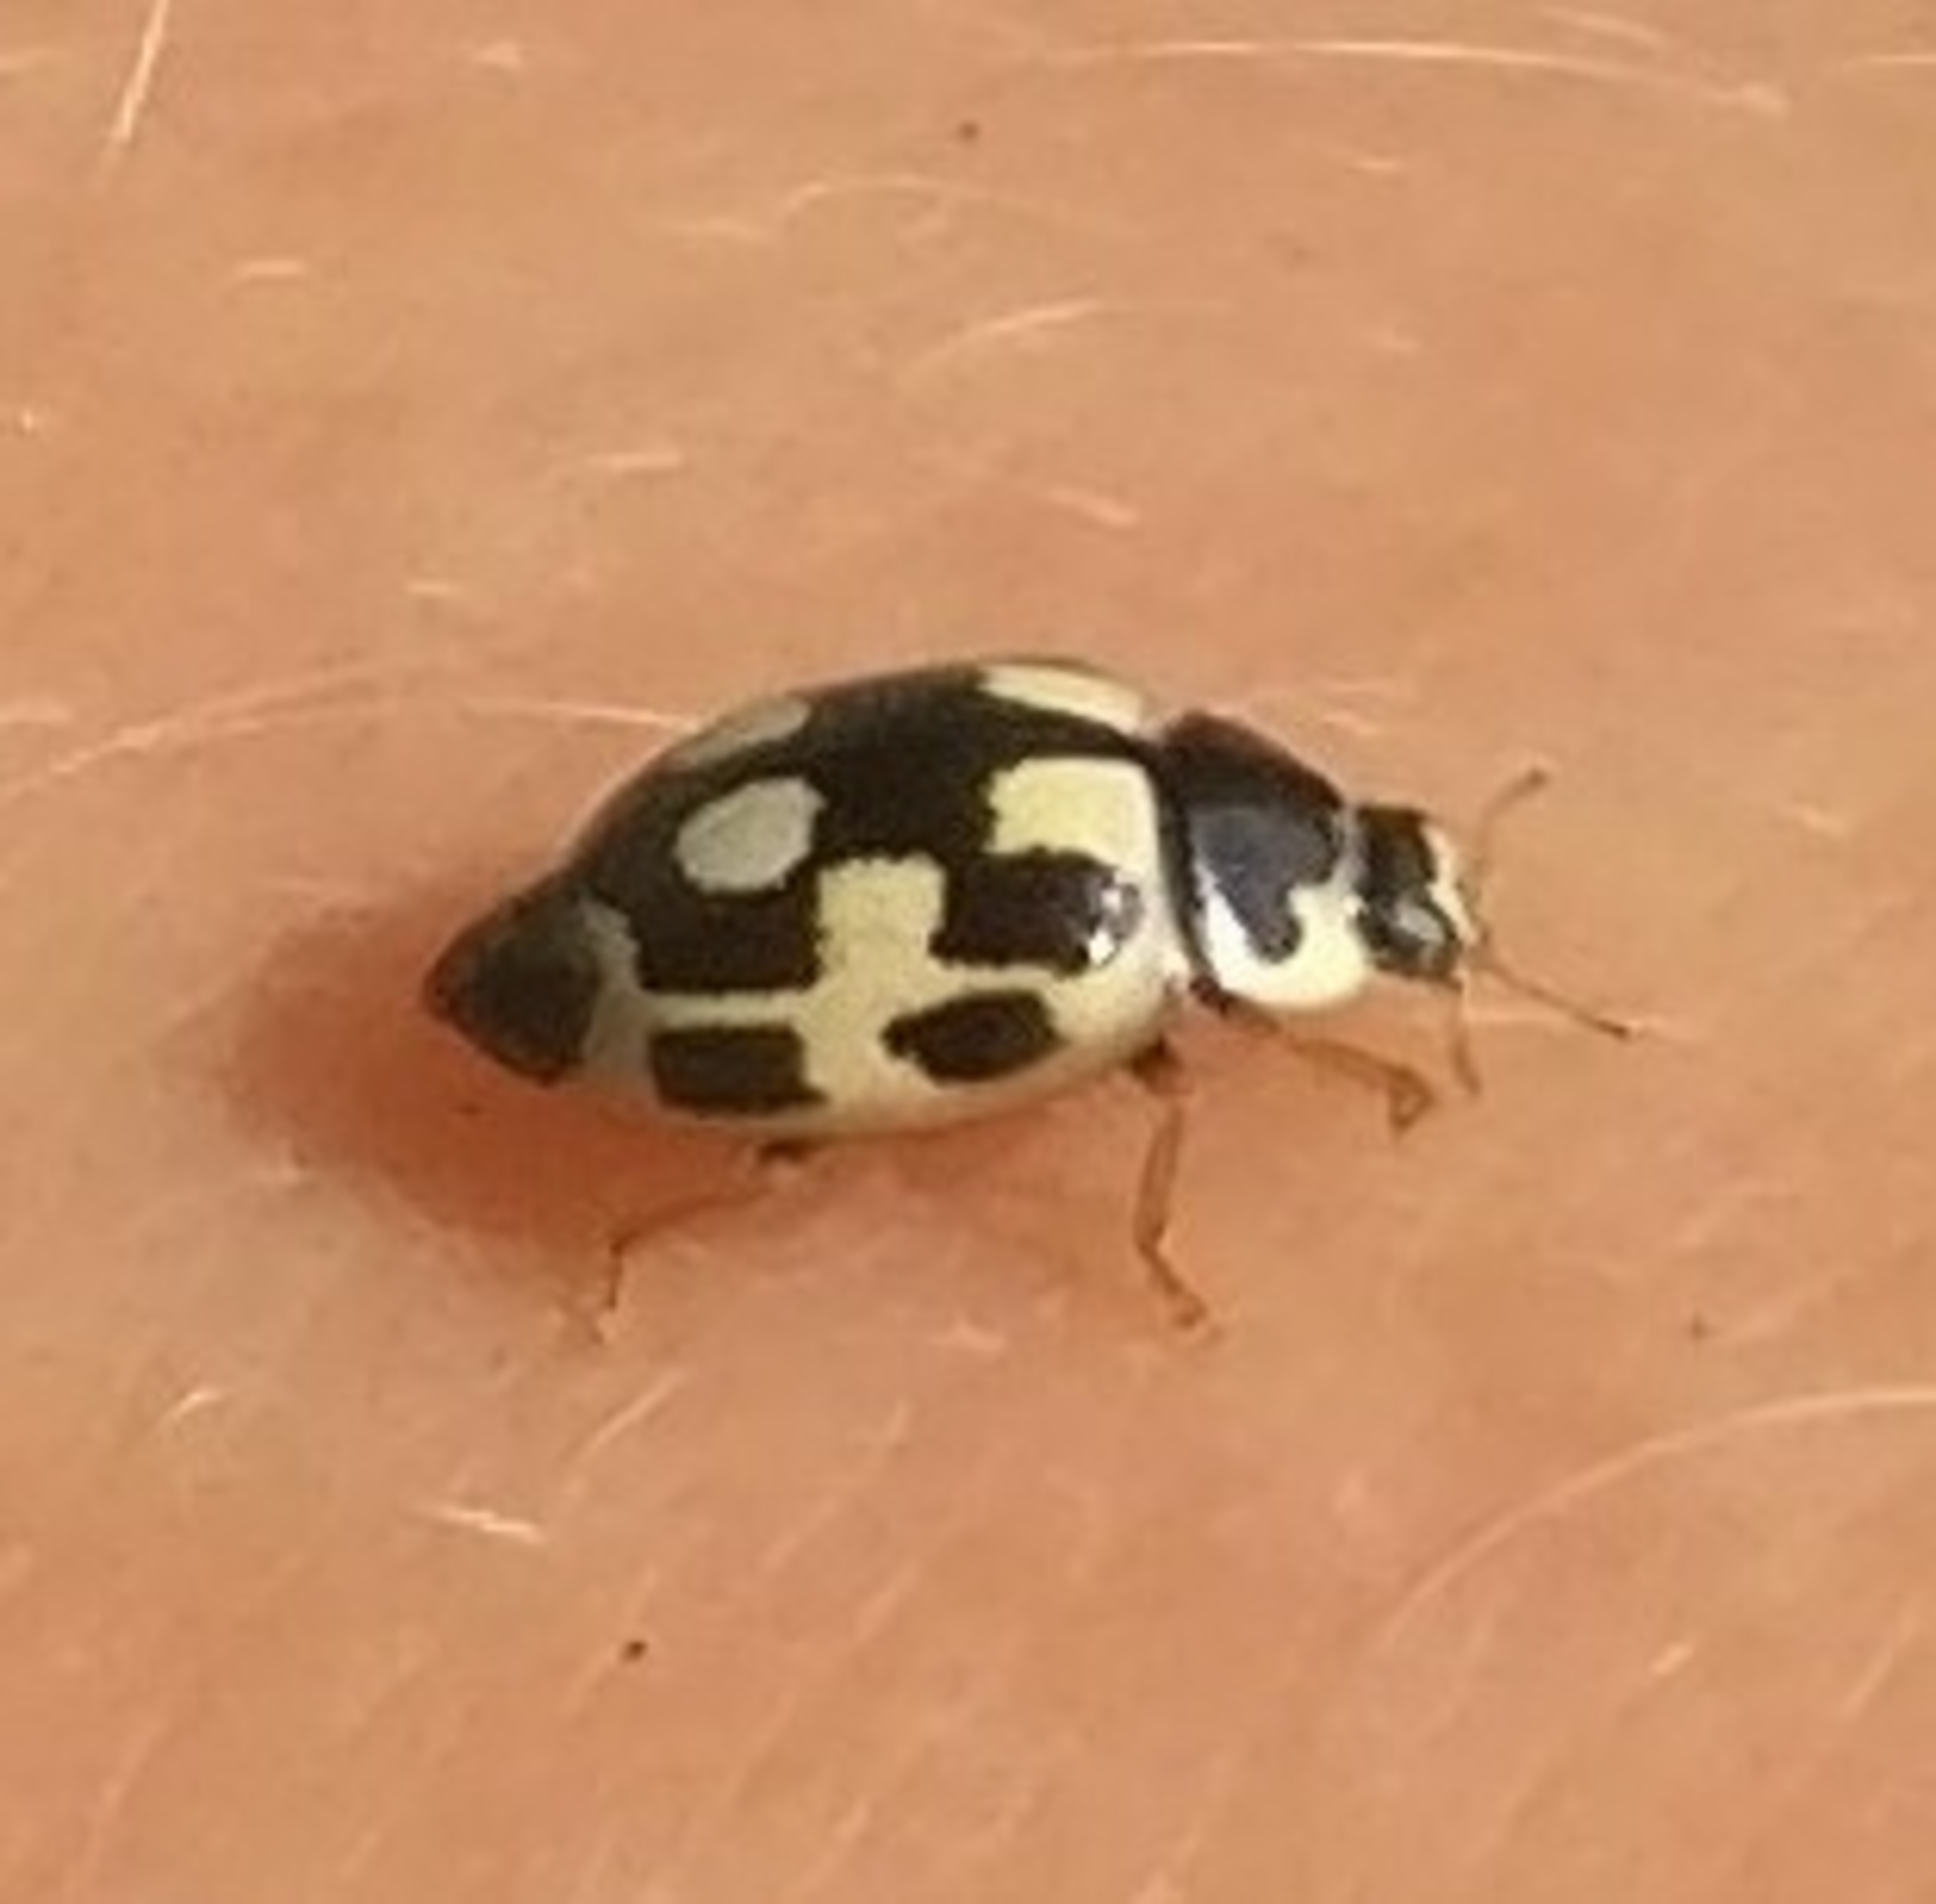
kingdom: Animalia
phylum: Arthropoda
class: Insecta
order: Coleoptera
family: Coccinellidae
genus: Propylaea
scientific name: Propylaea quatuordecimpunctata
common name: Skakbræt
